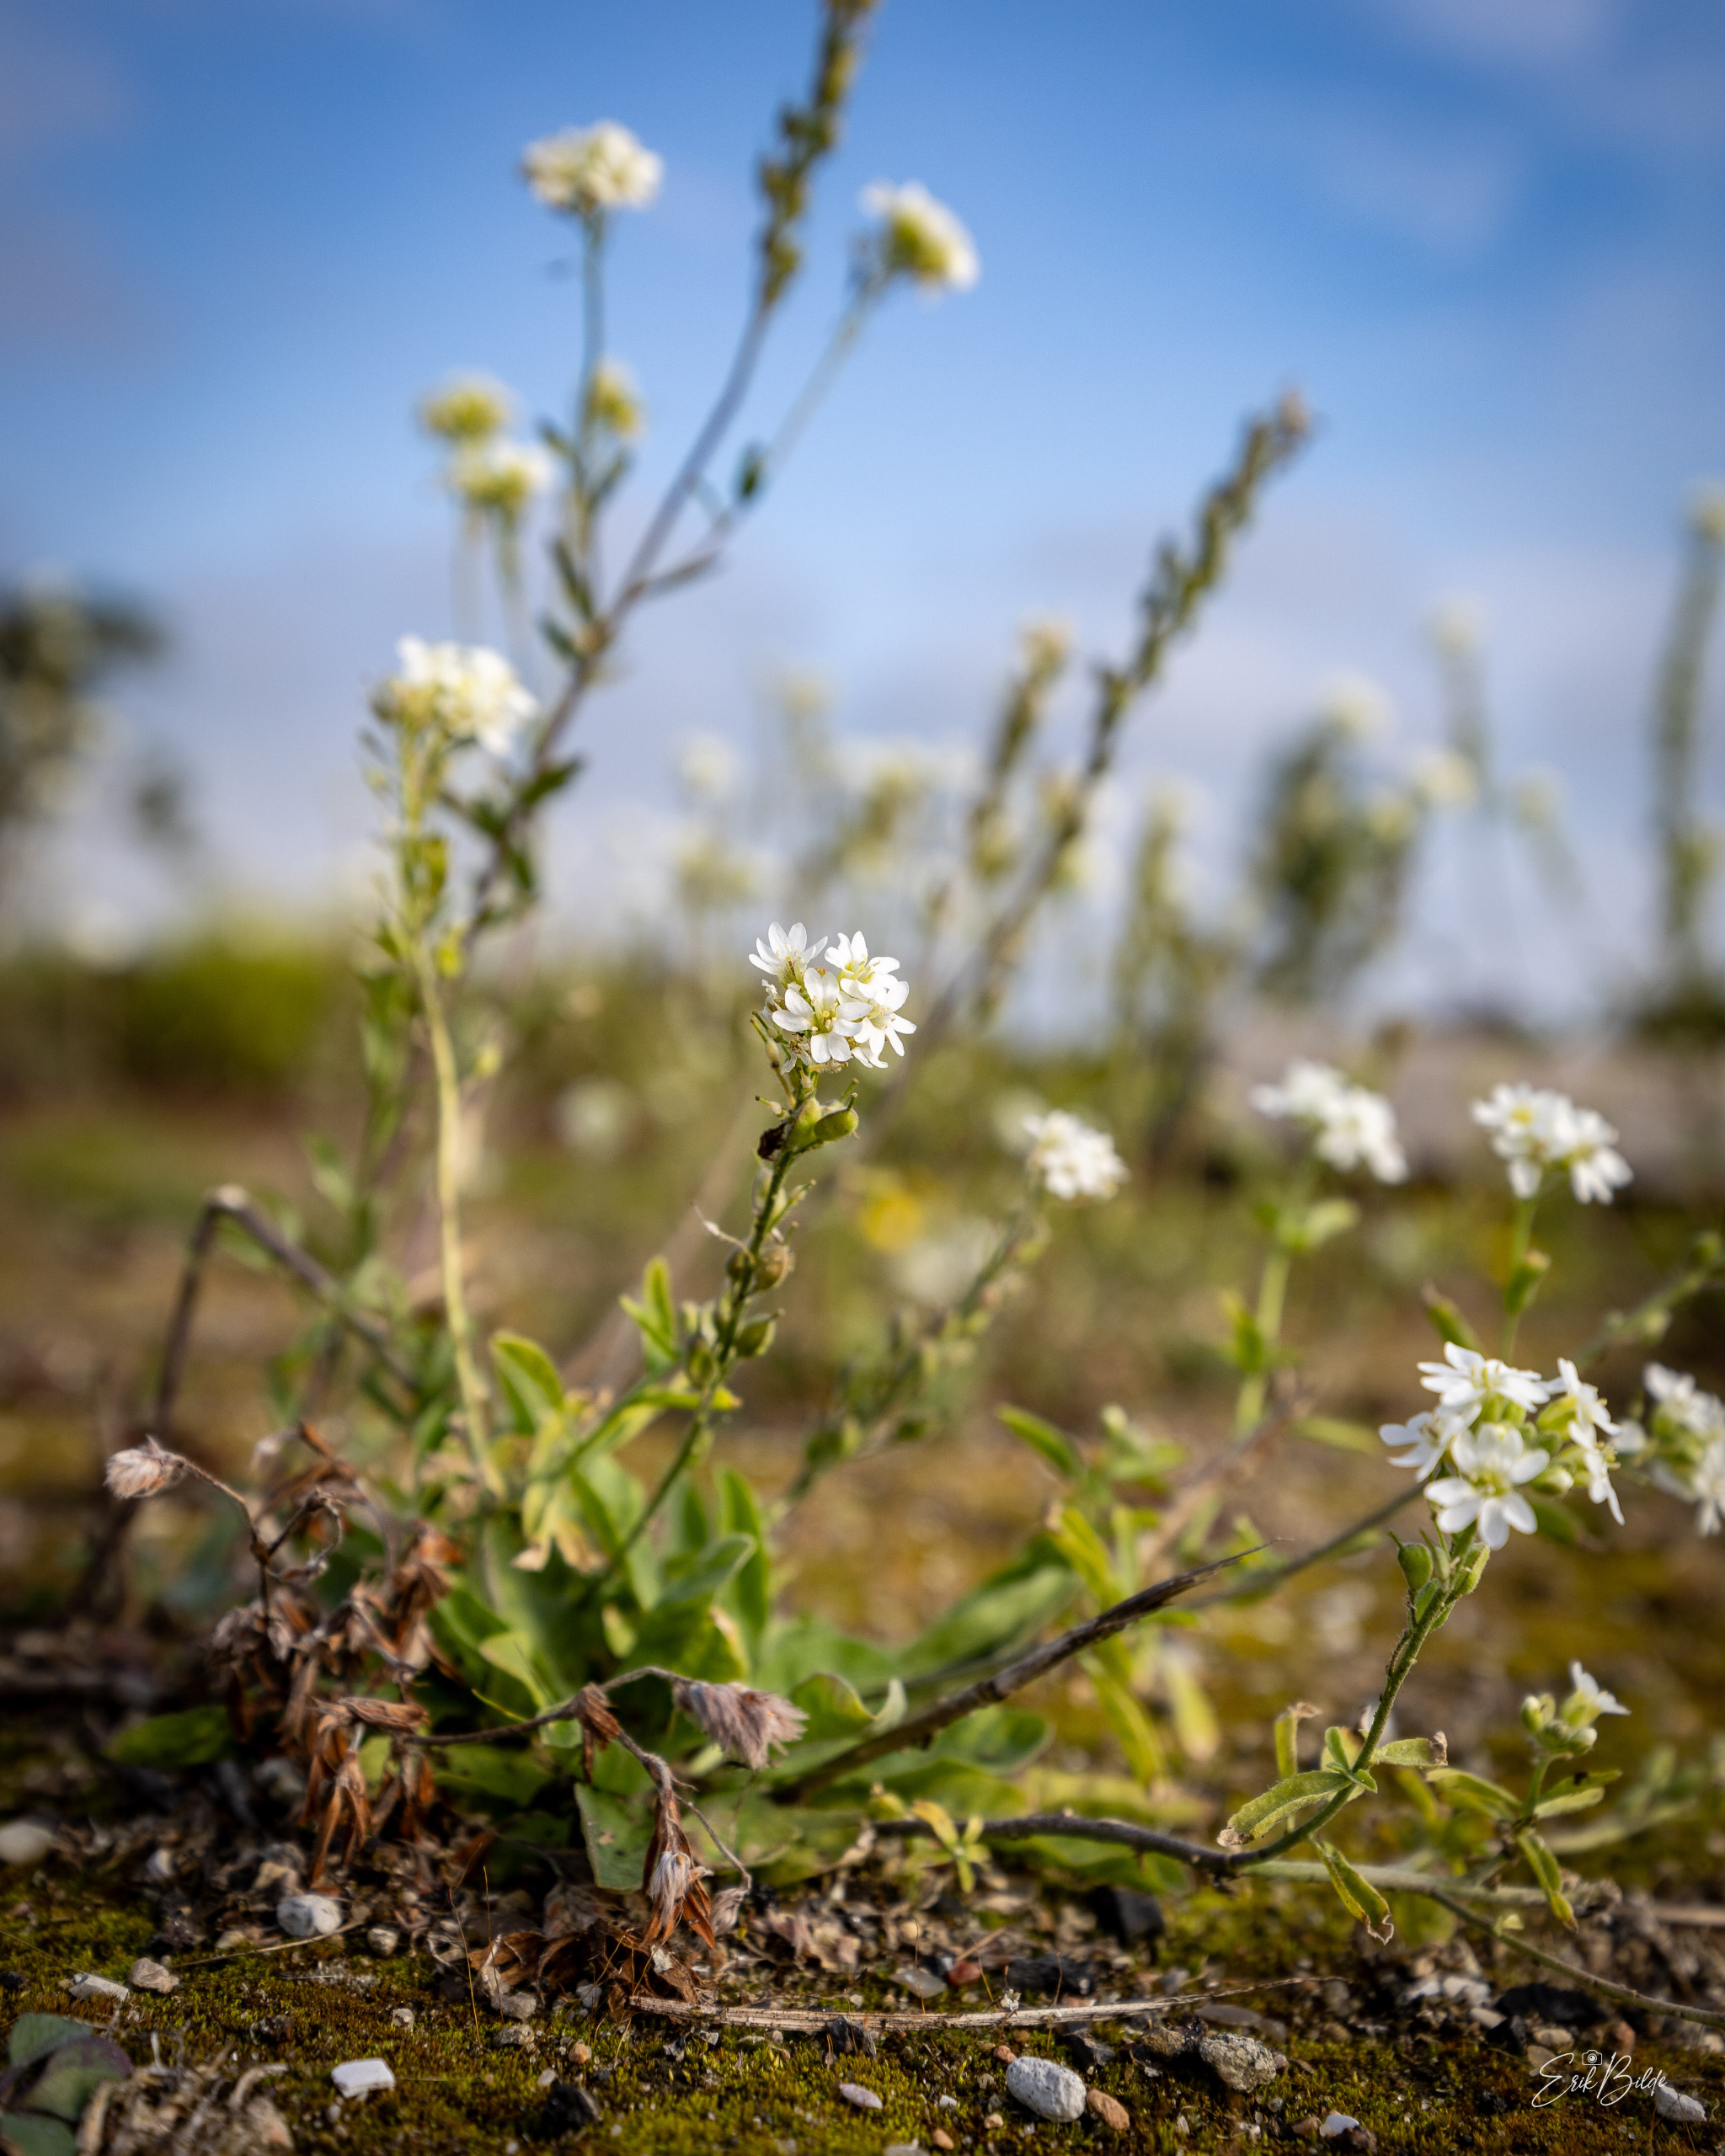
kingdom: Plantae
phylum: Tracheophyta
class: Magnoliopsida
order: Brassicales
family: Brassicaceae
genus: Berteroa
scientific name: Berteroa incana
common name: Kløvplade
